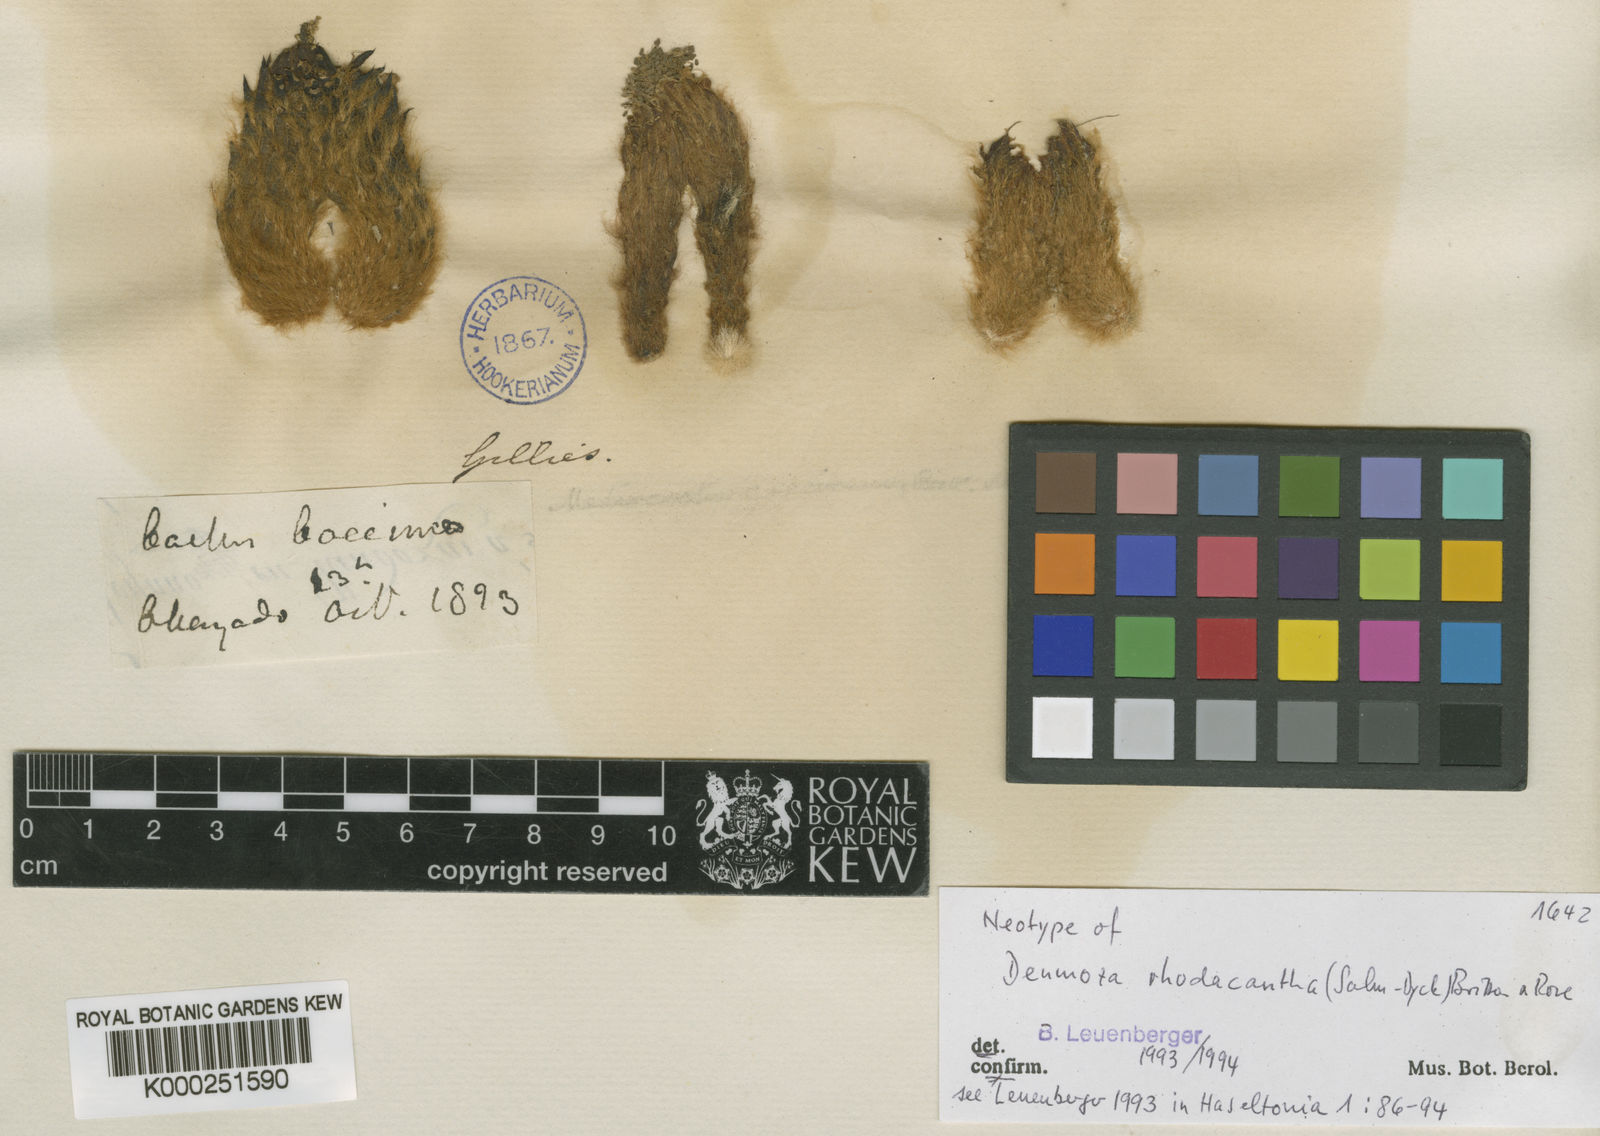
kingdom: Plantae
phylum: Tracheophyta
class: Magnoliopsida
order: Caryophyllales
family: Cactaceae
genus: Denmoza
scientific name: Denmoza rhodacantha
